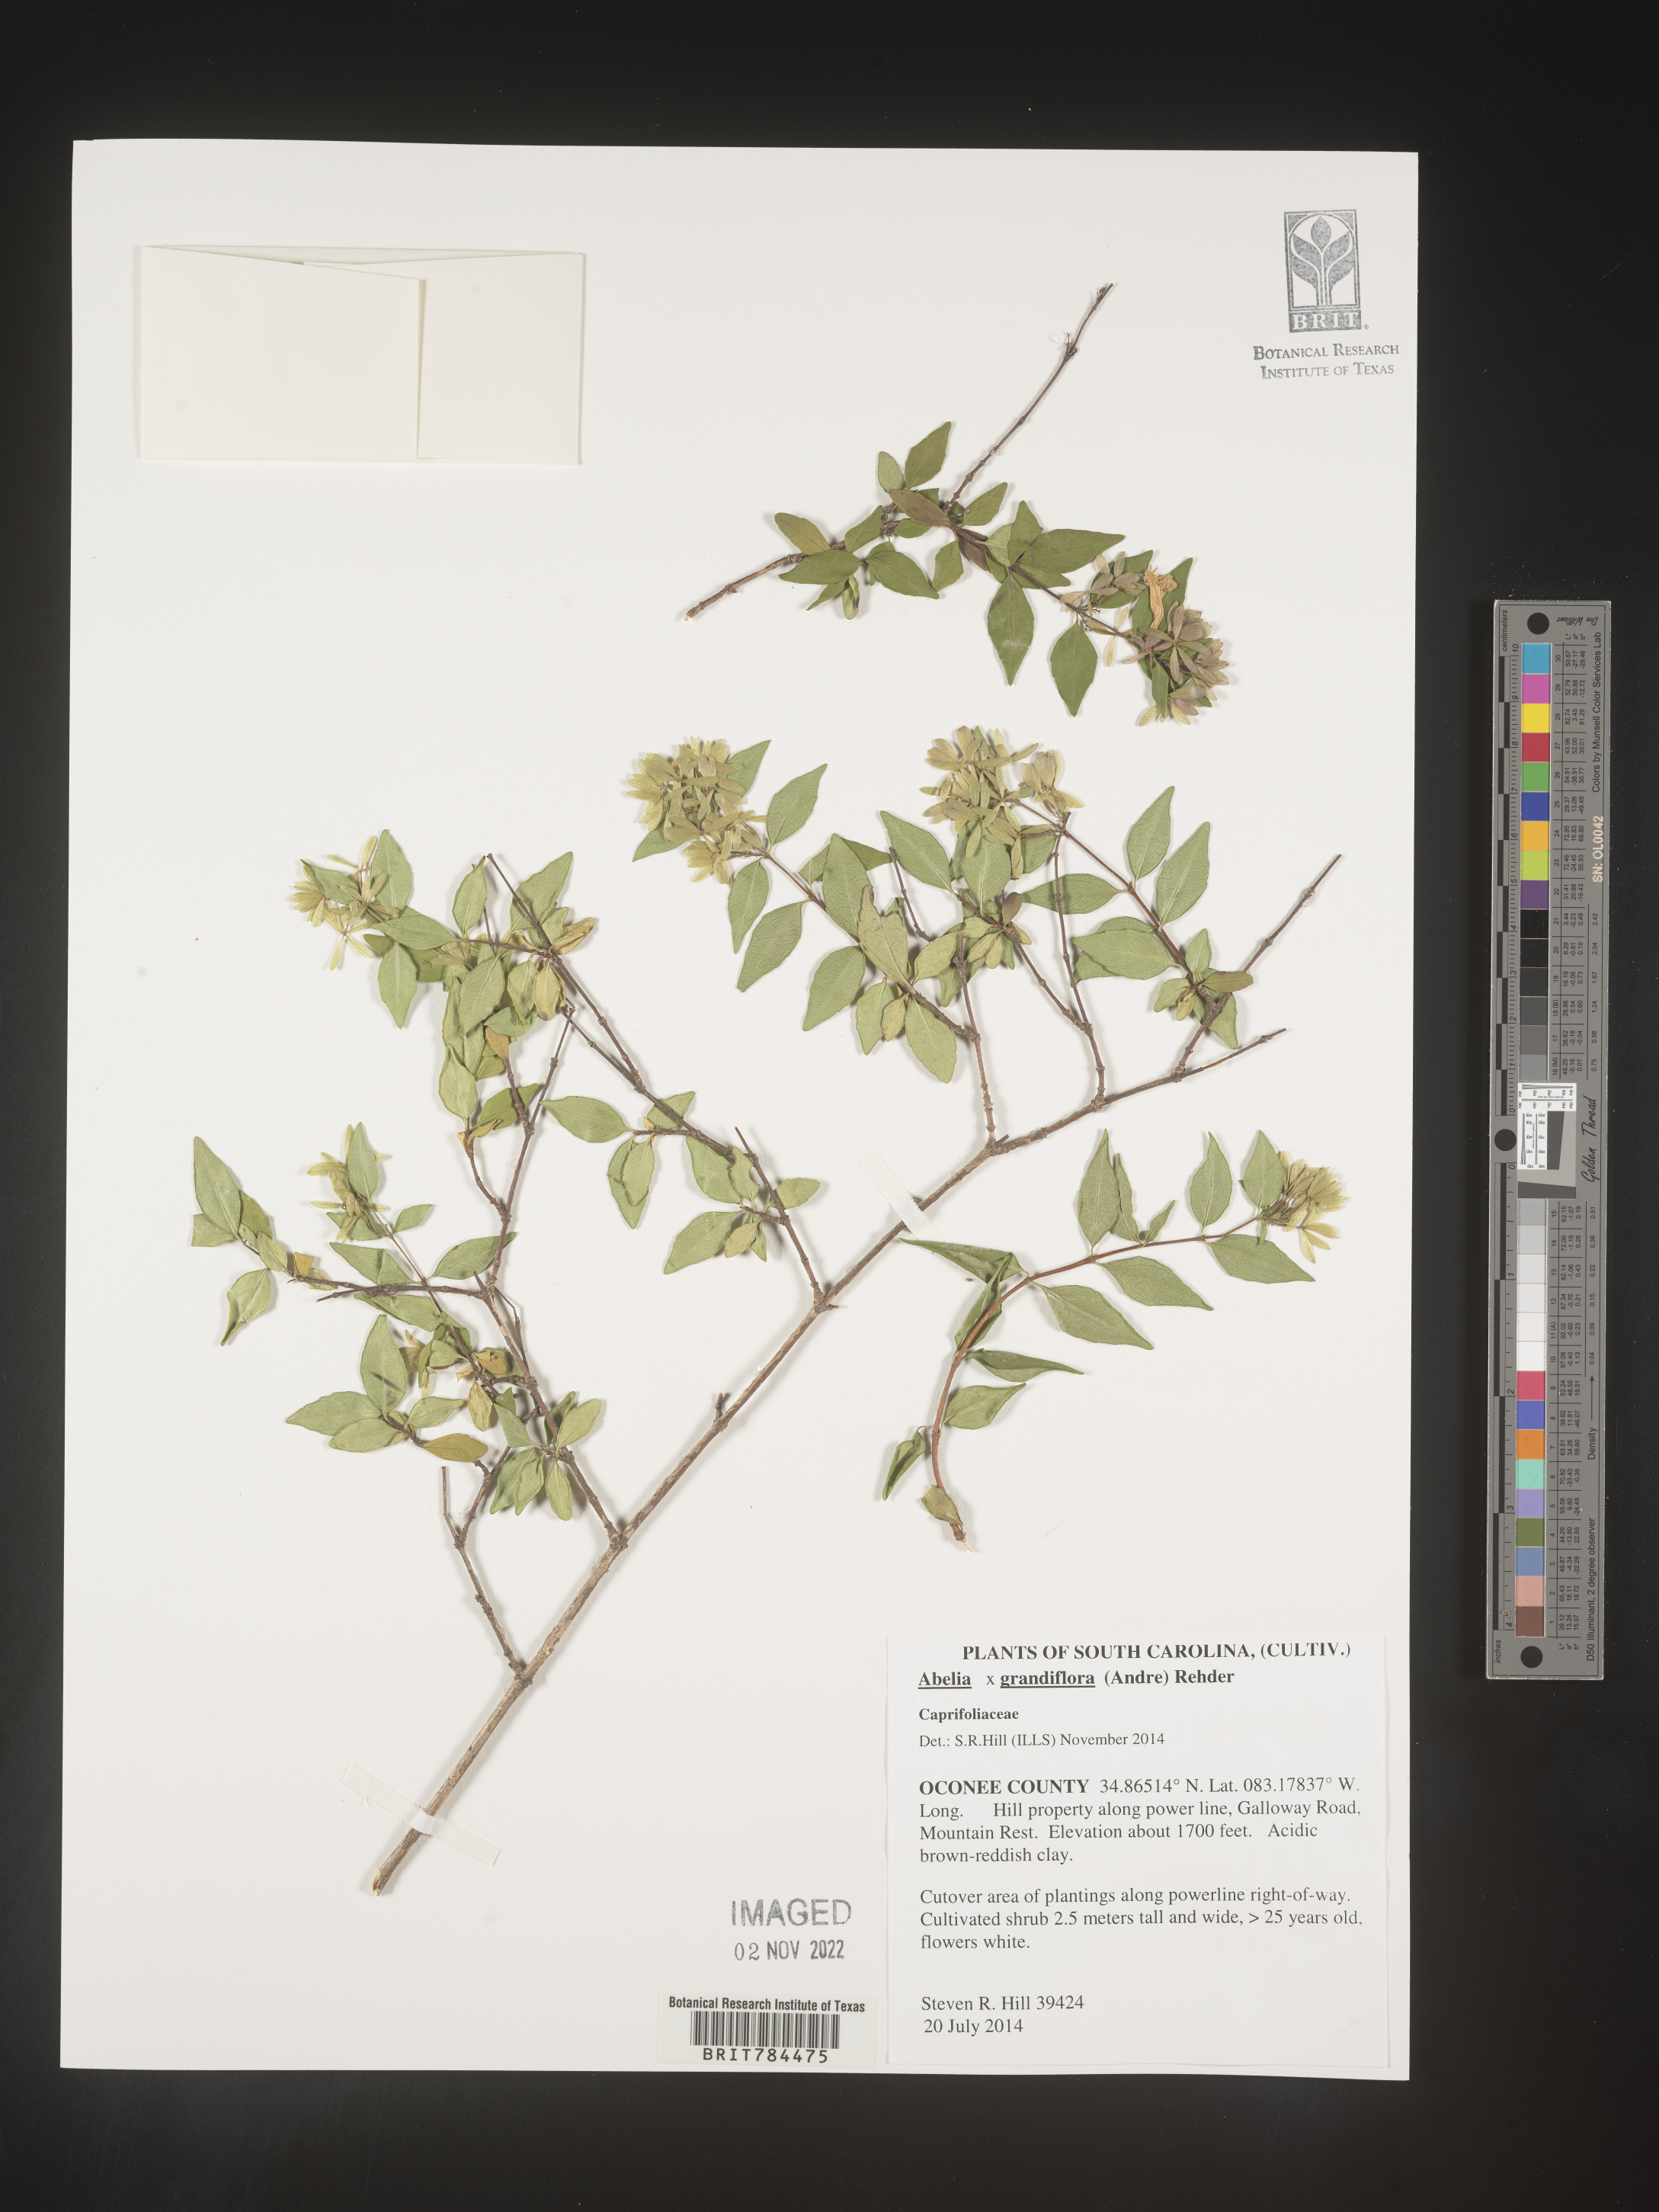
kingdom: Plantae
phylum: Tracheophyta
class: Magnoliopsida
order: Dipsacales
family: Caprifoliaceae
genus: Abelia
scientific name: Abelia
